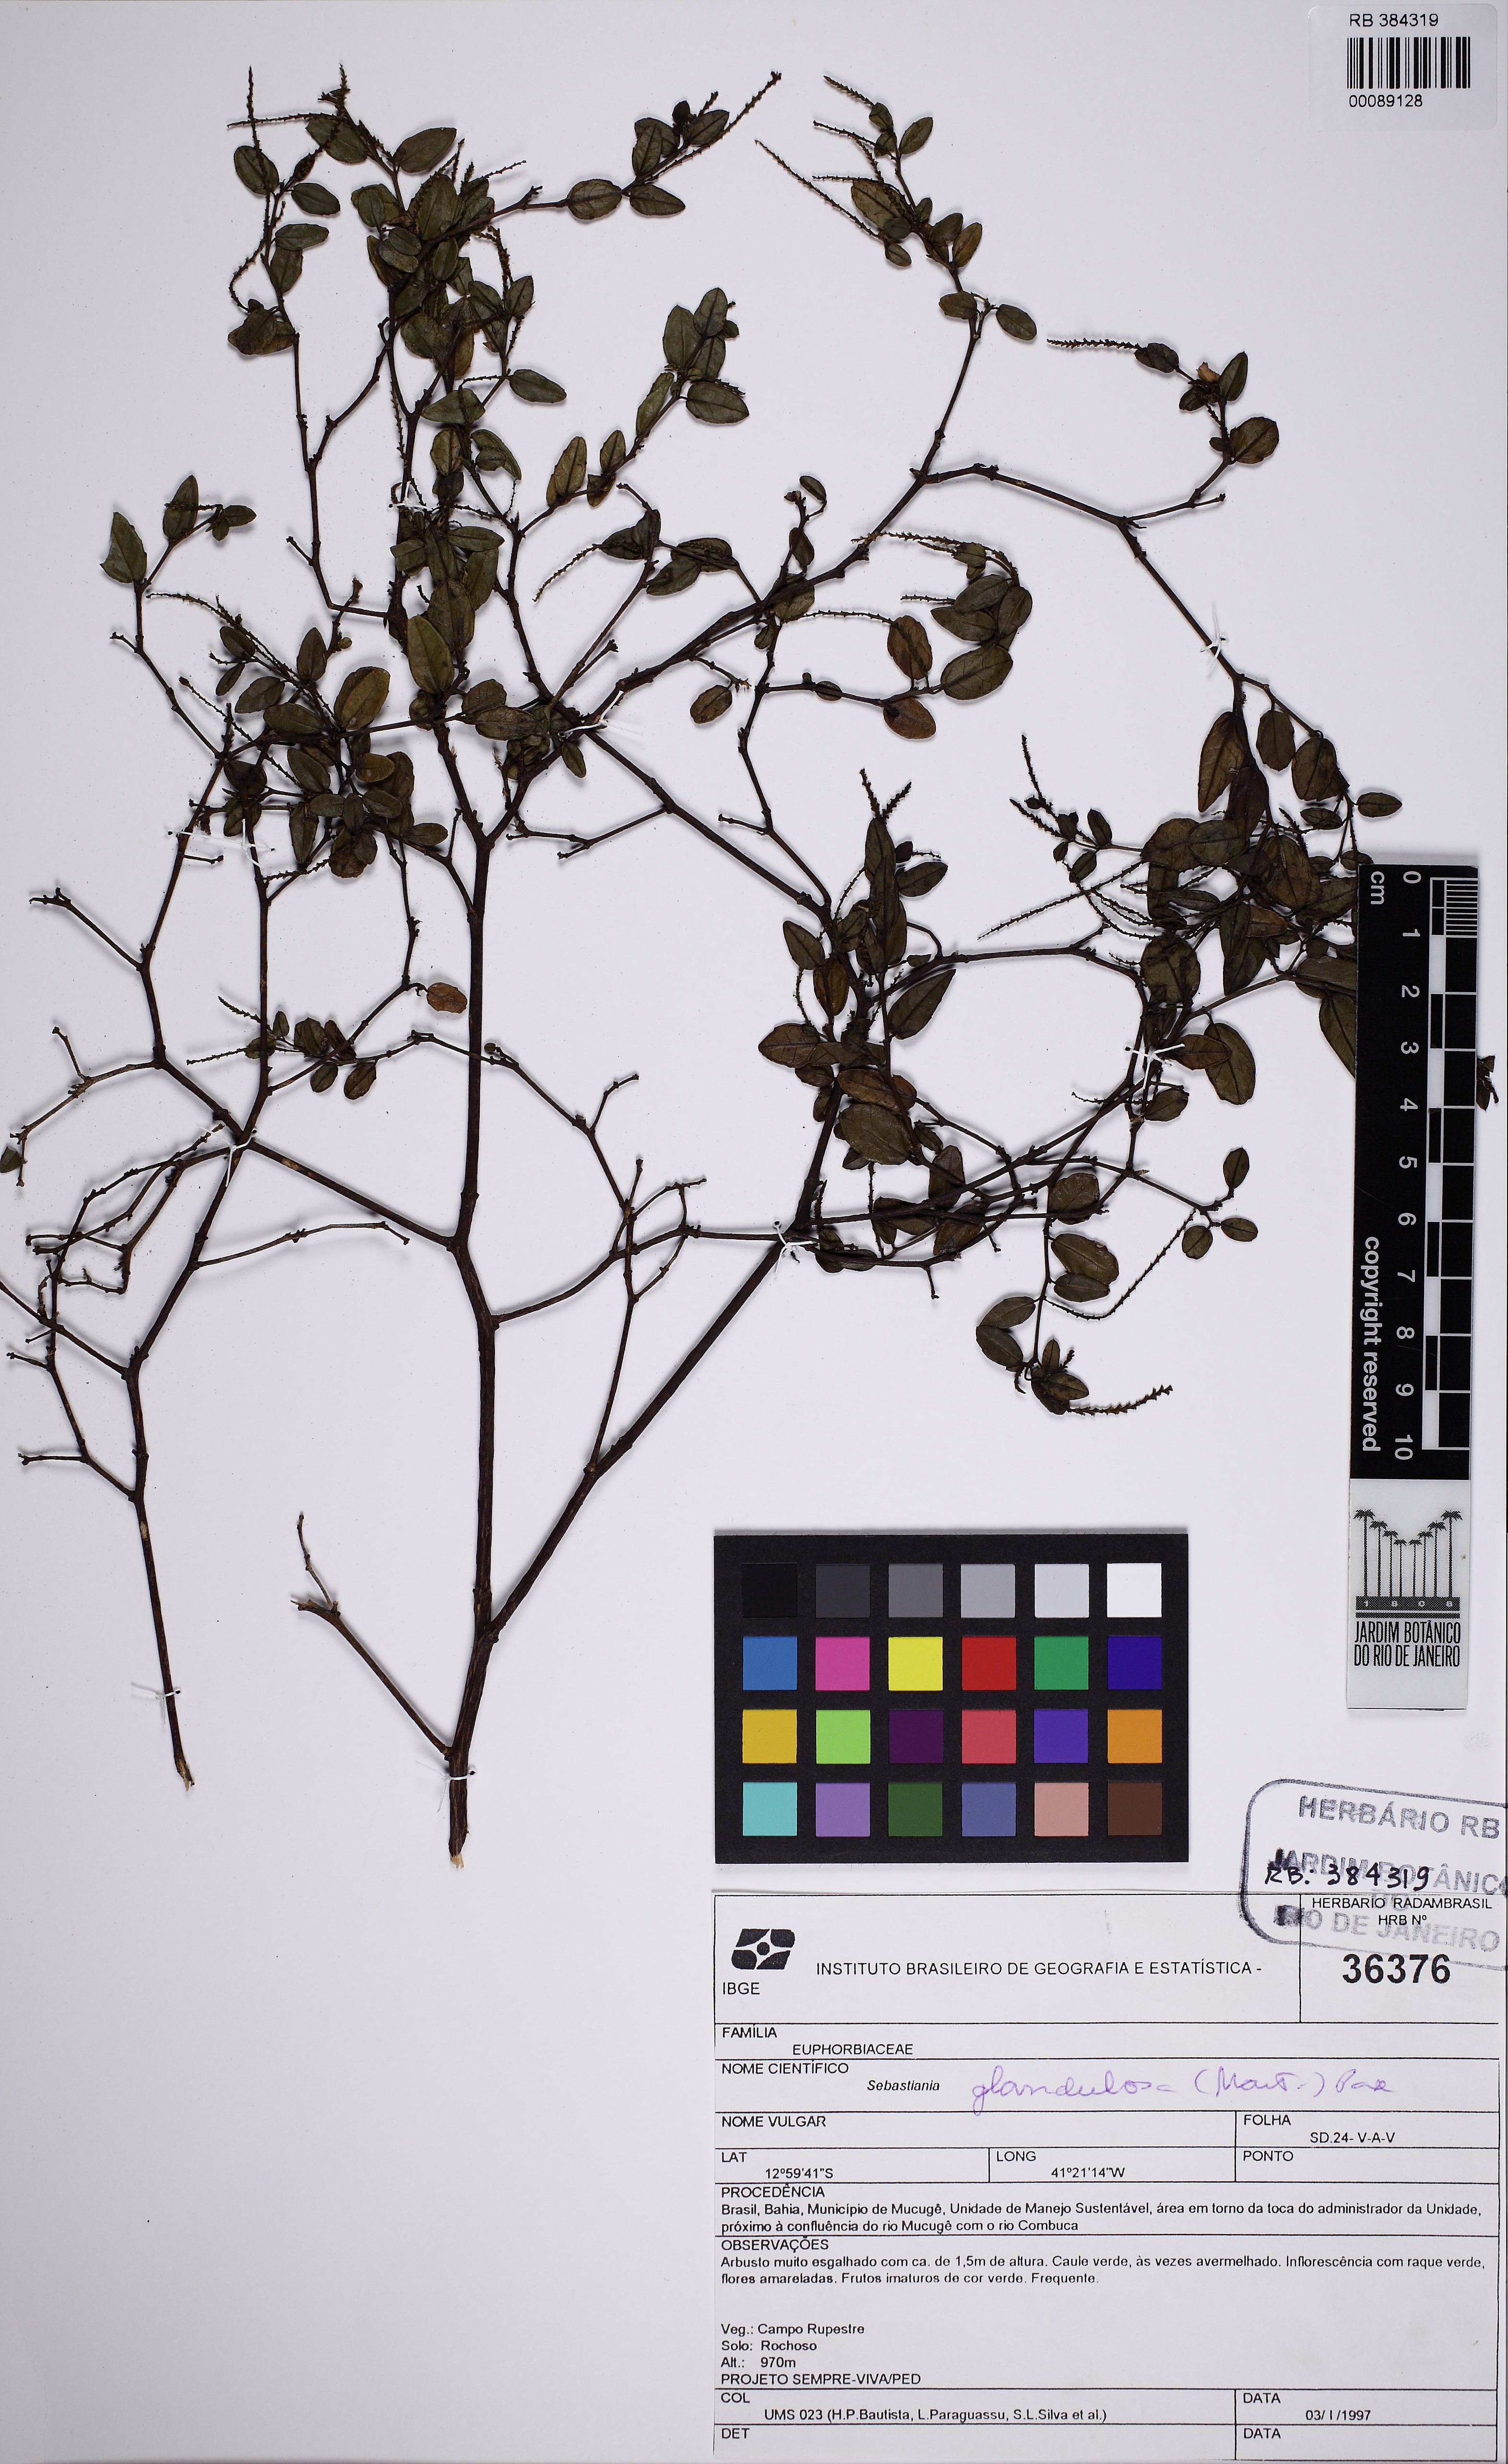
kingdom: Plantae
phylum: Tracheophyta
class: Magnoliopsida
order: Malpighiales
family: Euphorbiaceae
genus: Microstachys
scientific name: Microstachys corniculata
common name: Hato tejas
